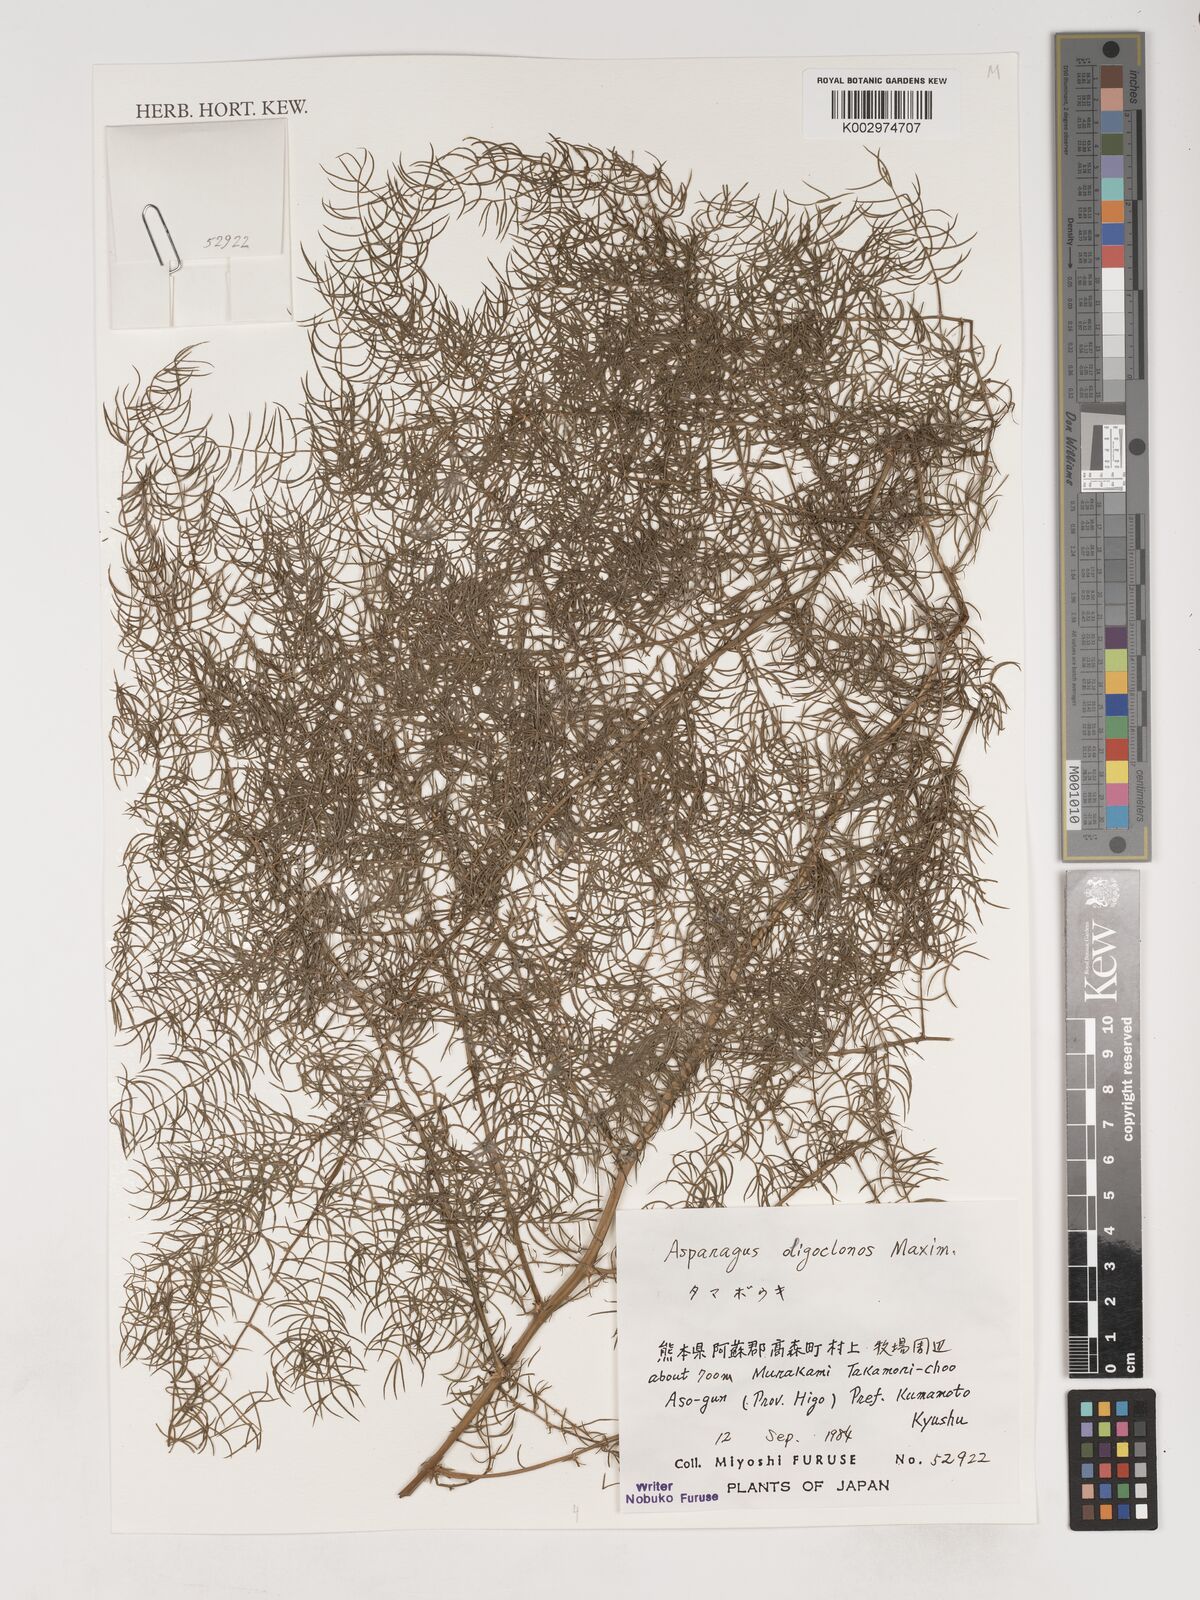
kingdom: Plantae
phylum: Tracheophyta
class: Liliopsida
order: Asparagales
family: Asparagaceae
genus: Asparagus
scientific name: Asparagus oligoclonos
